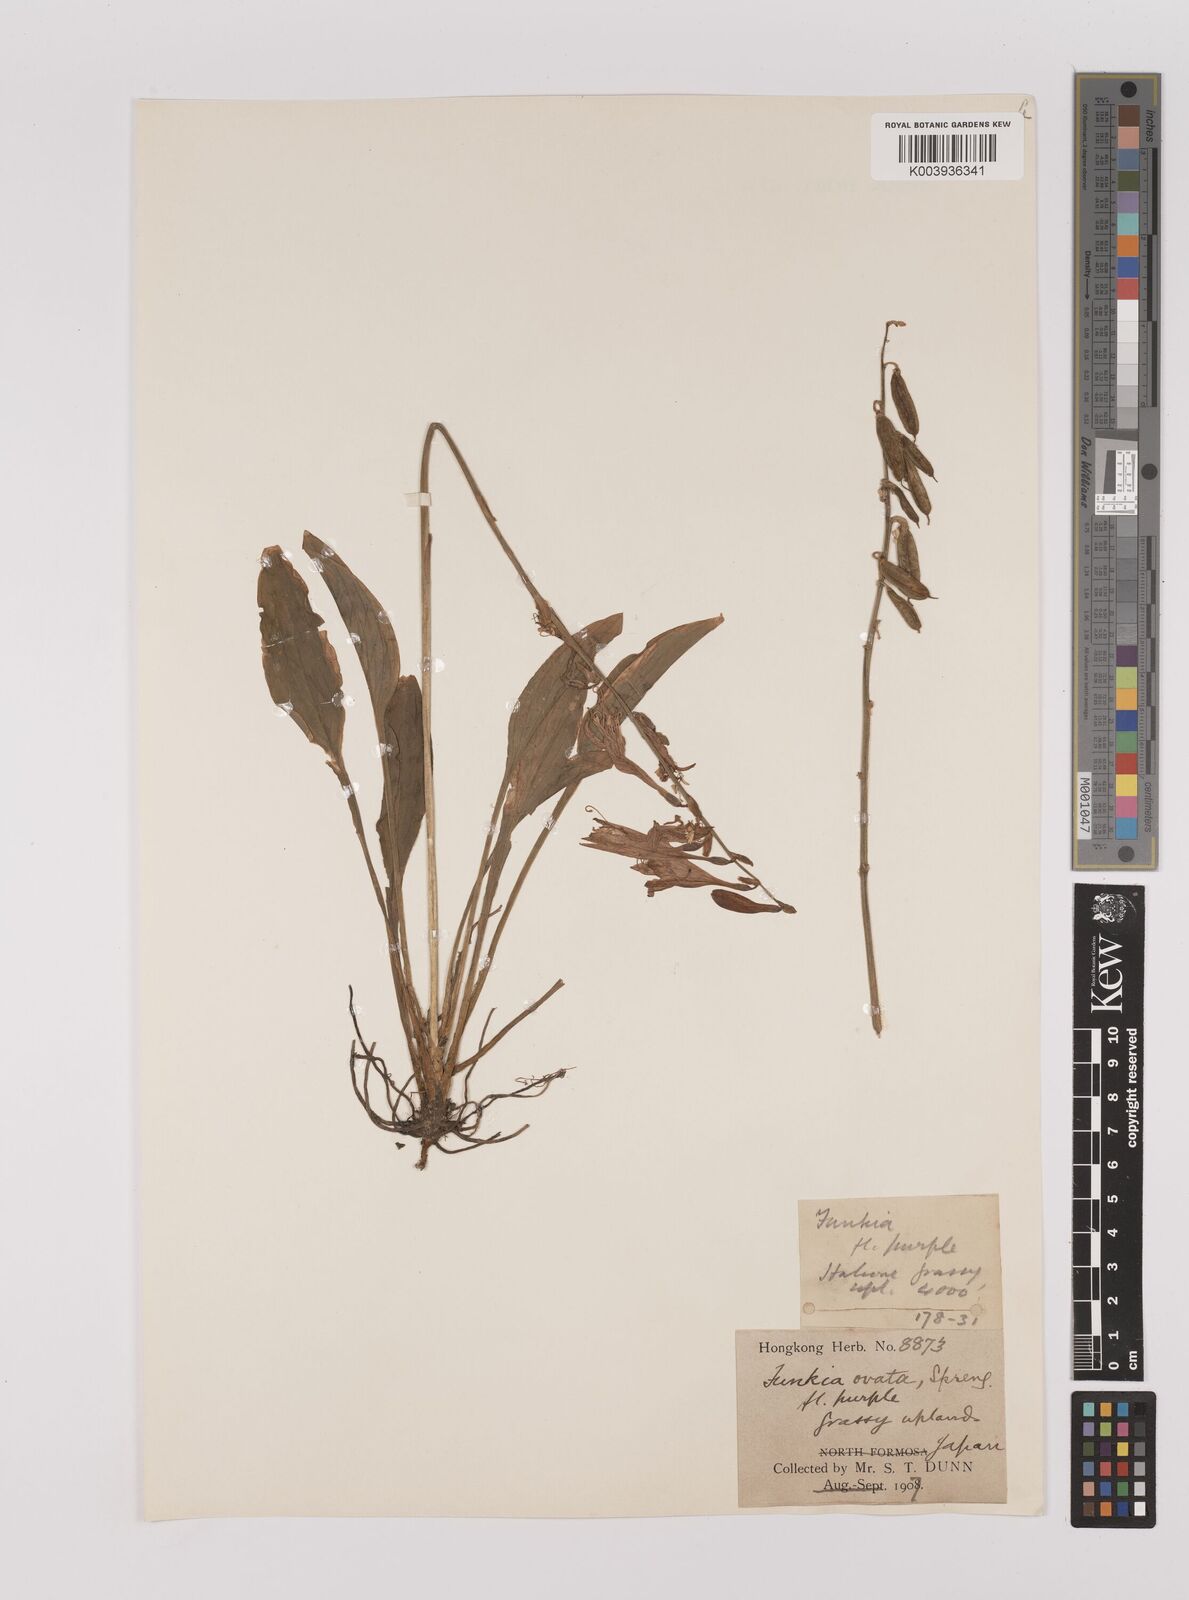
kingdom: Plantae
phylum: Tracheophyta
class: Liliopsida
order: Asparagales
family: Asparagaceae
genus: Hosta
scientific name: Hosta ventricosa
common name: Blue plantain-lily
